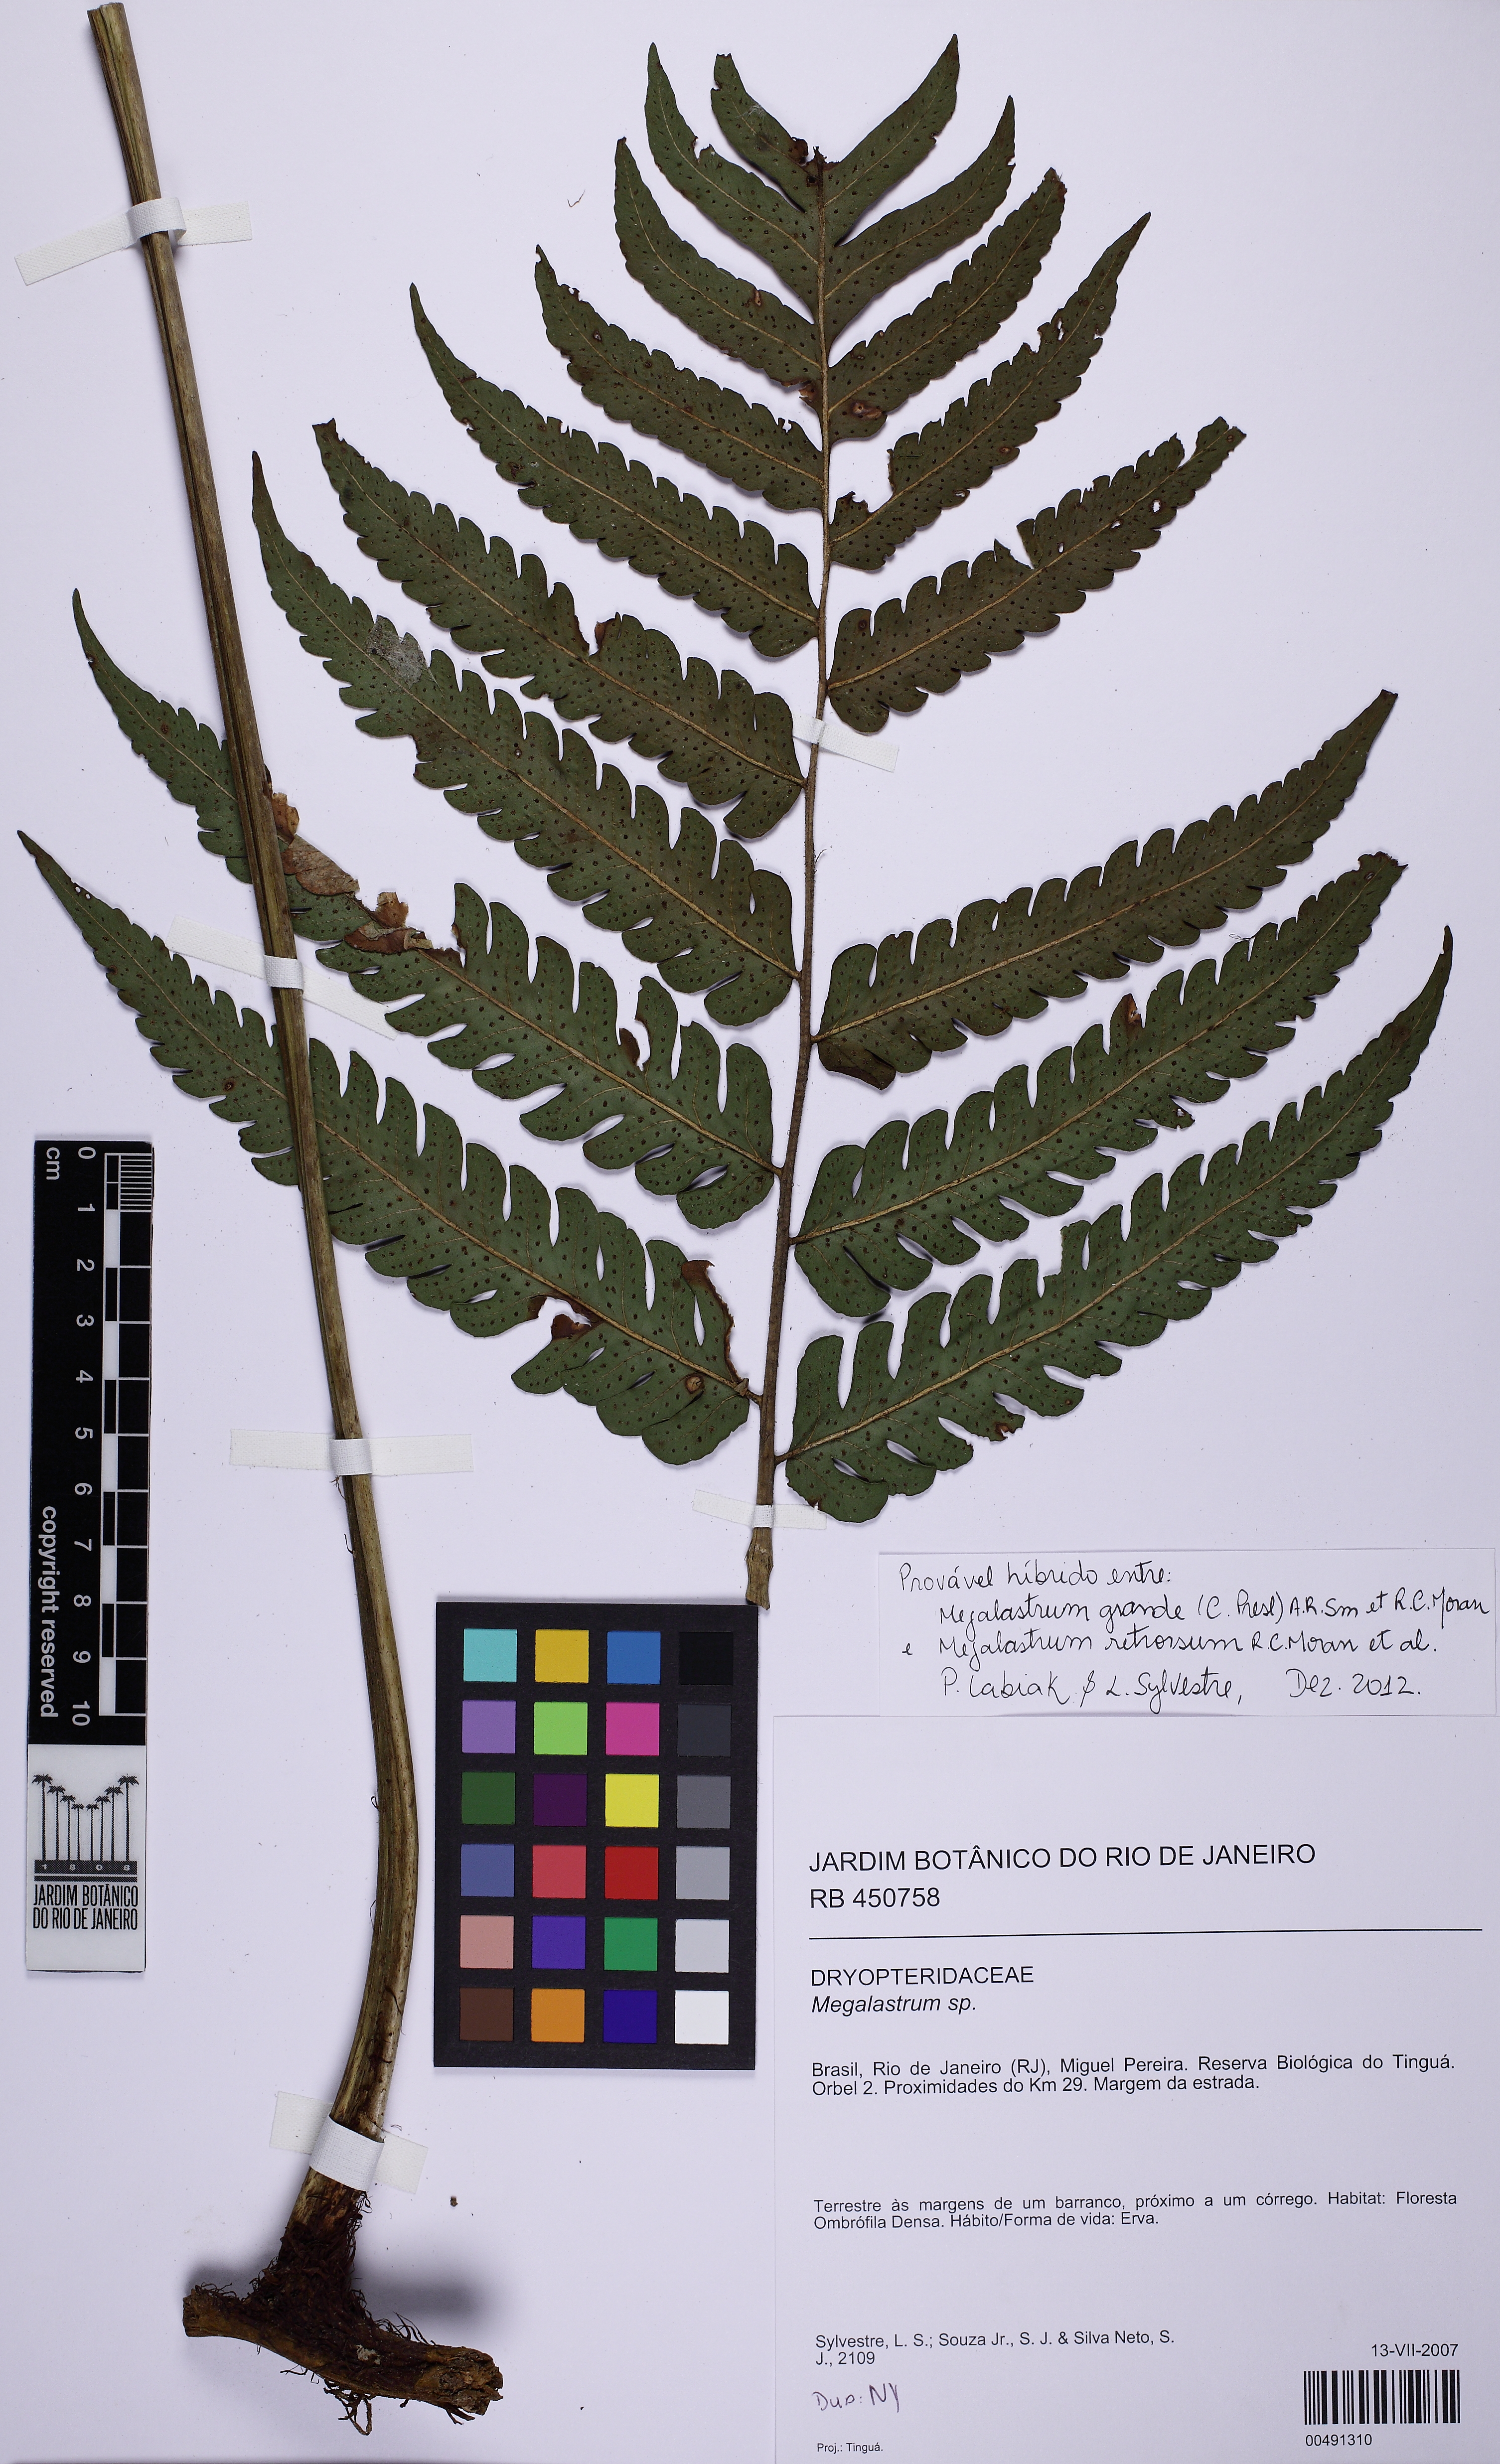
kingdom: Plantae
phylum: Tracheophyta
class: Polypodiopsida
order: Polypodiales
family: Dryopteridaceae
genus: Megalastrum
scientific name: Megalastrum
